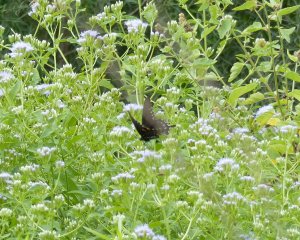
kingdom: Animalia
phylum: Arthropoda
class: Insecta
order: Lepidoptera
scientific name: Lepidoptera
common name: Butterflies
